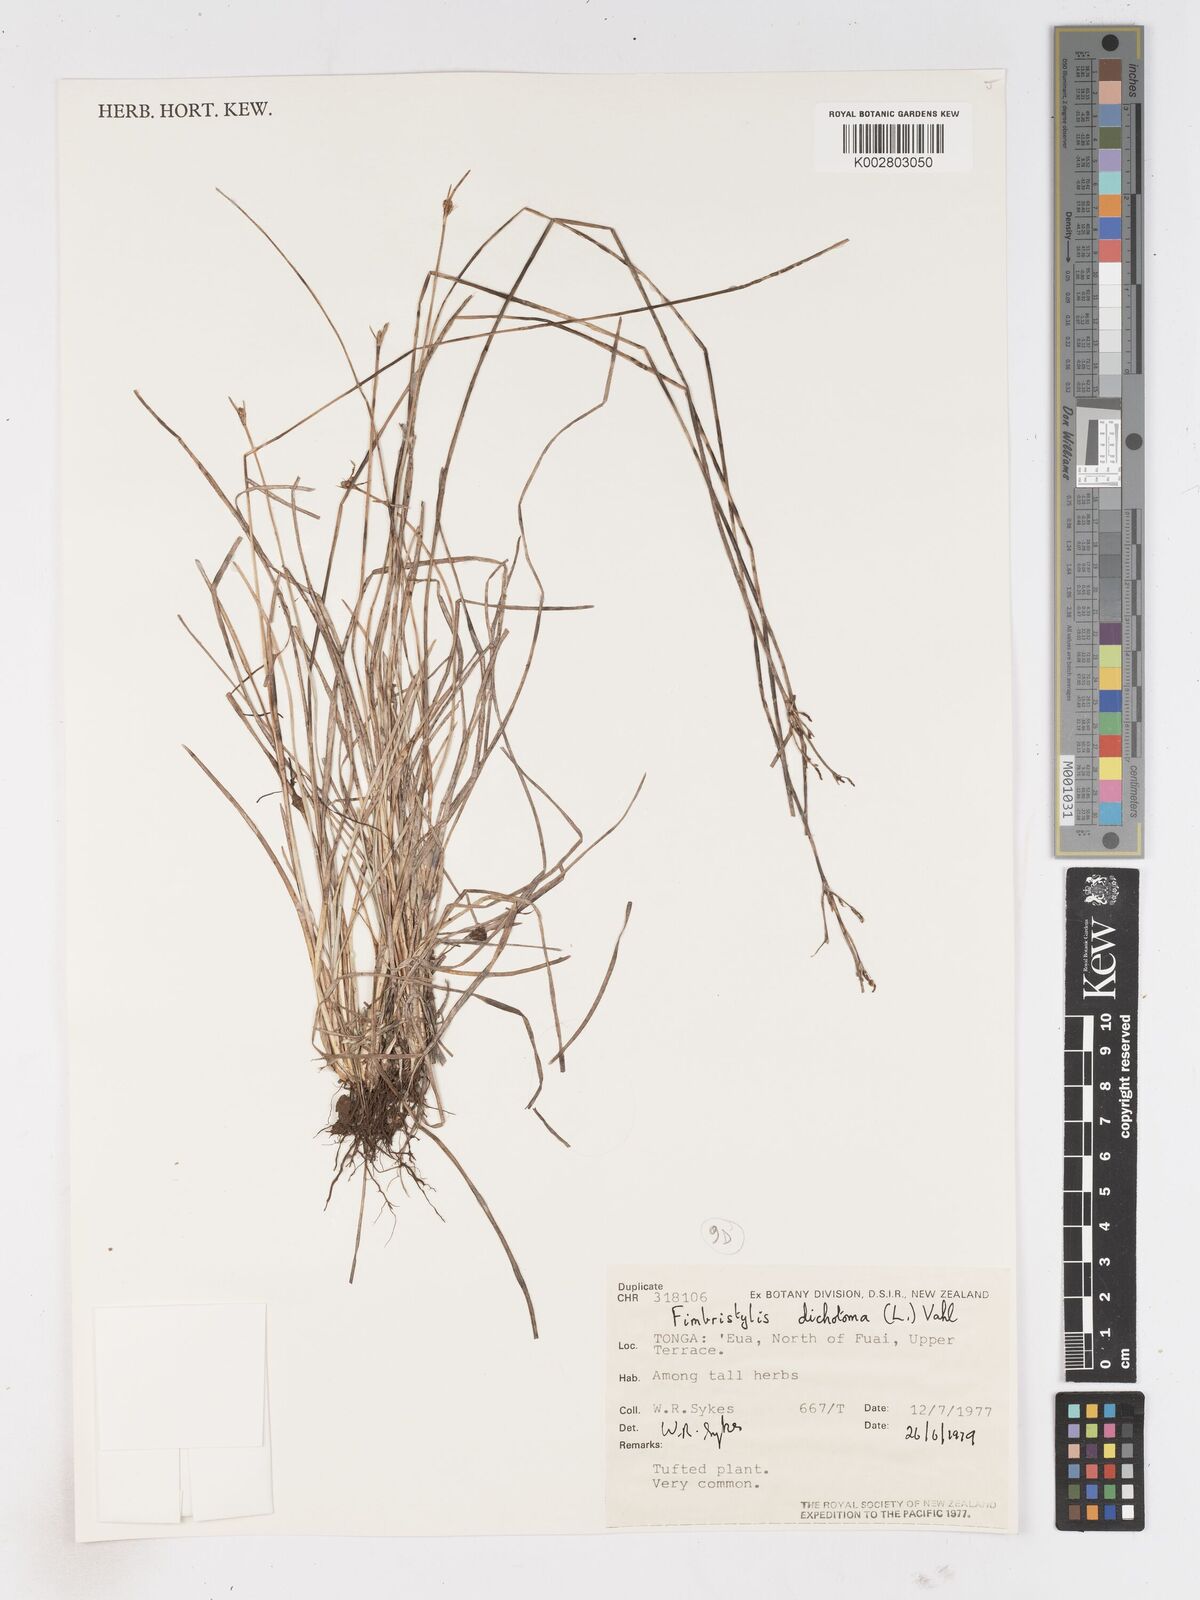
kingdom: Plantae
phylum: Tracheophyta
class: Liliopsida
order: Poales
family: Cyperaceae
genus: Fimbristylis
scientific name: Fimbristylis dichotoma
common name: Forked fimbry
